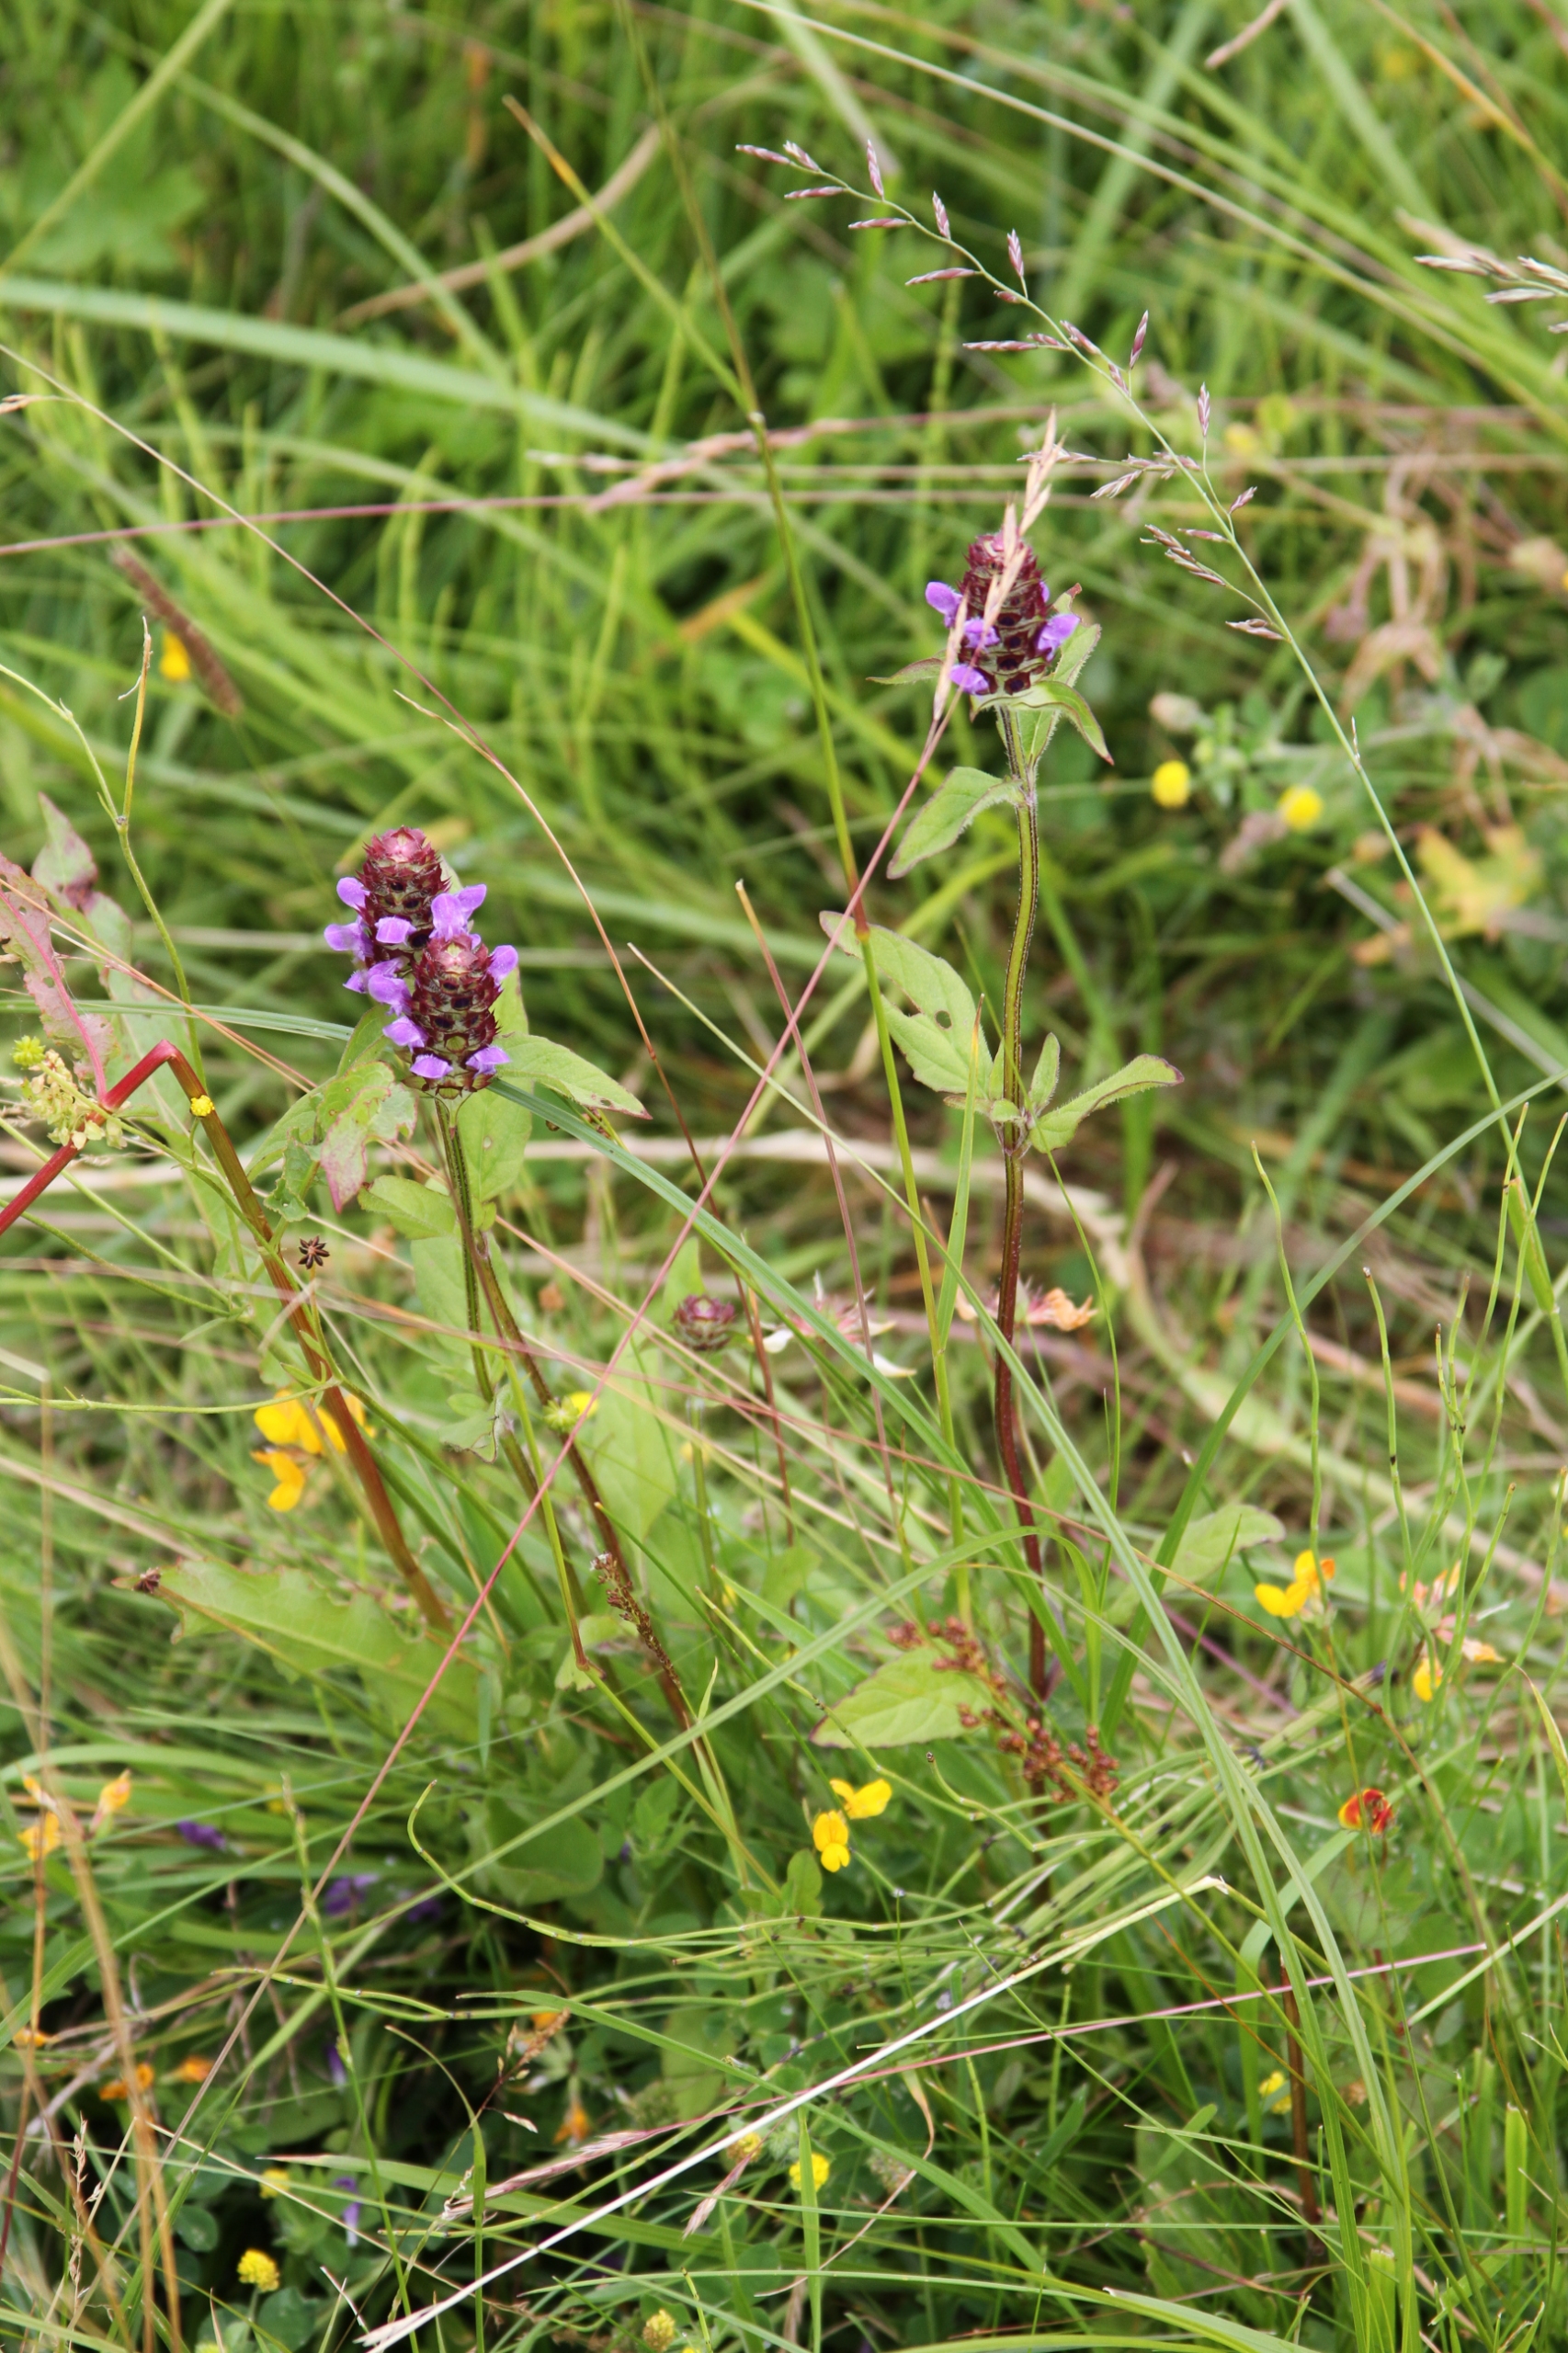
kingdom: Plantae
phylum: Tracheophyta
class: Magnoliopsida
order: Lamiales
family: Lamiaceae
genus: Prunella
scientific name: Prunella vulgaris
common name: Almindelig brunelle
